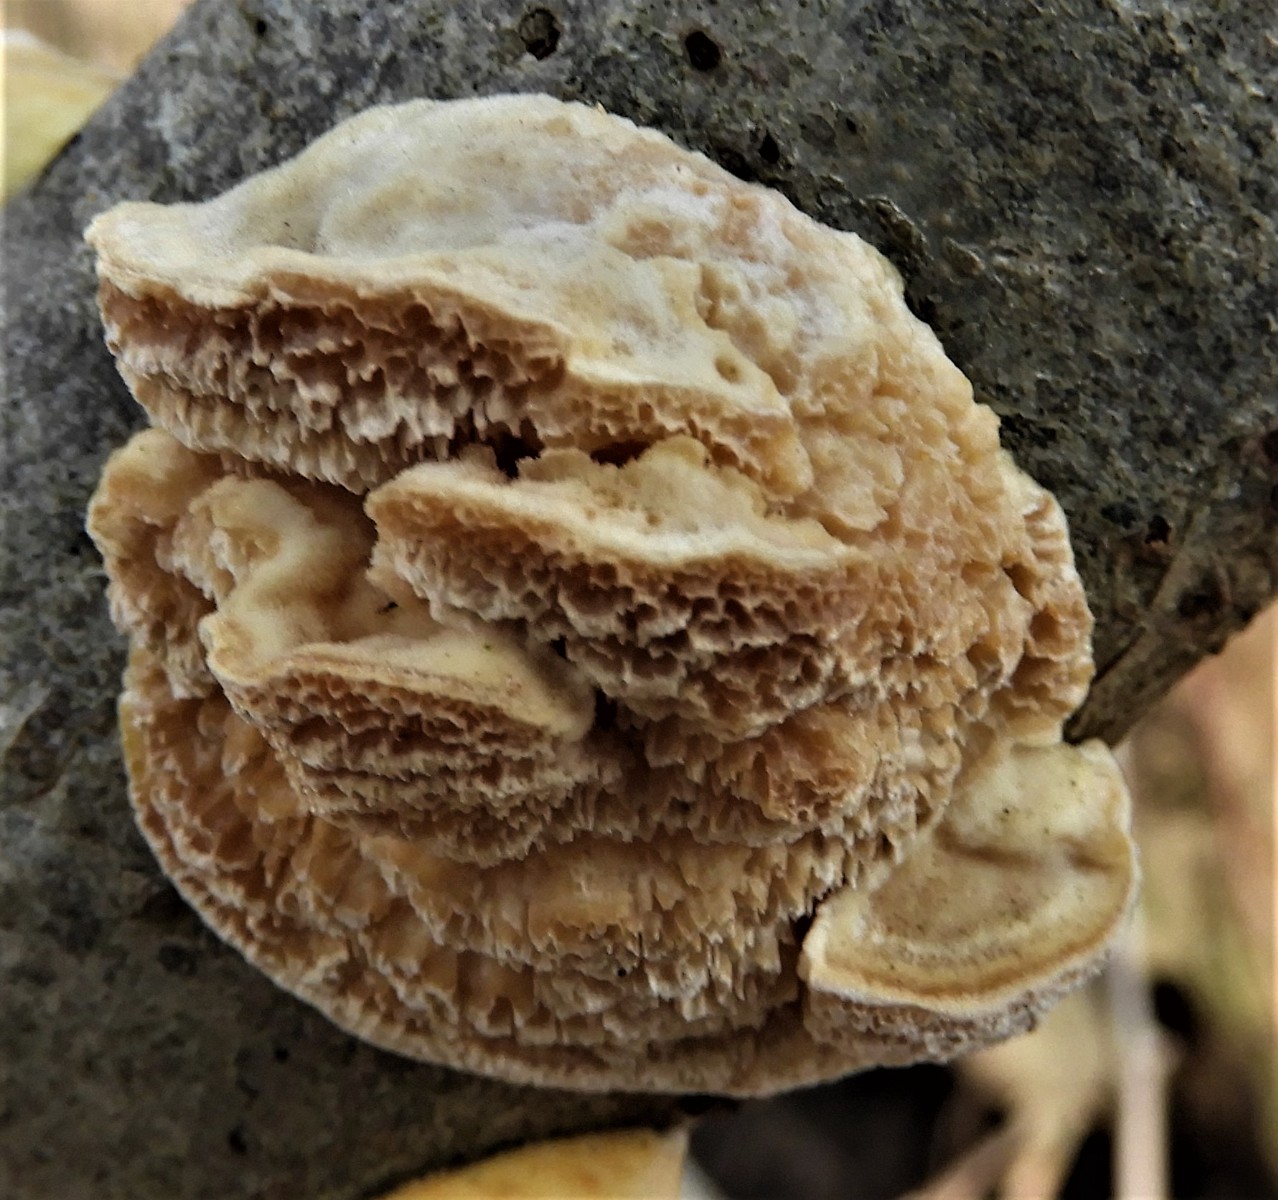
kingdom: Fungi
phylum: Basidiomycota
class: Agaricomycetes
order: Polyporales
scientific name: Polyporales
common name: poresvampordenen
